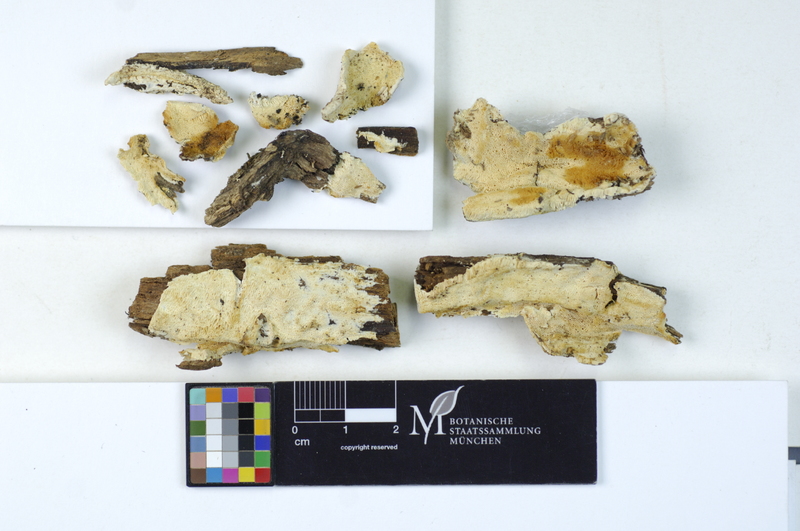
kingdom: Plantae
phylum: Tracheophyta
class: Pinopsida
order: Pinales
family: Pinaceae
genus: Picea
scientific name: Picea
